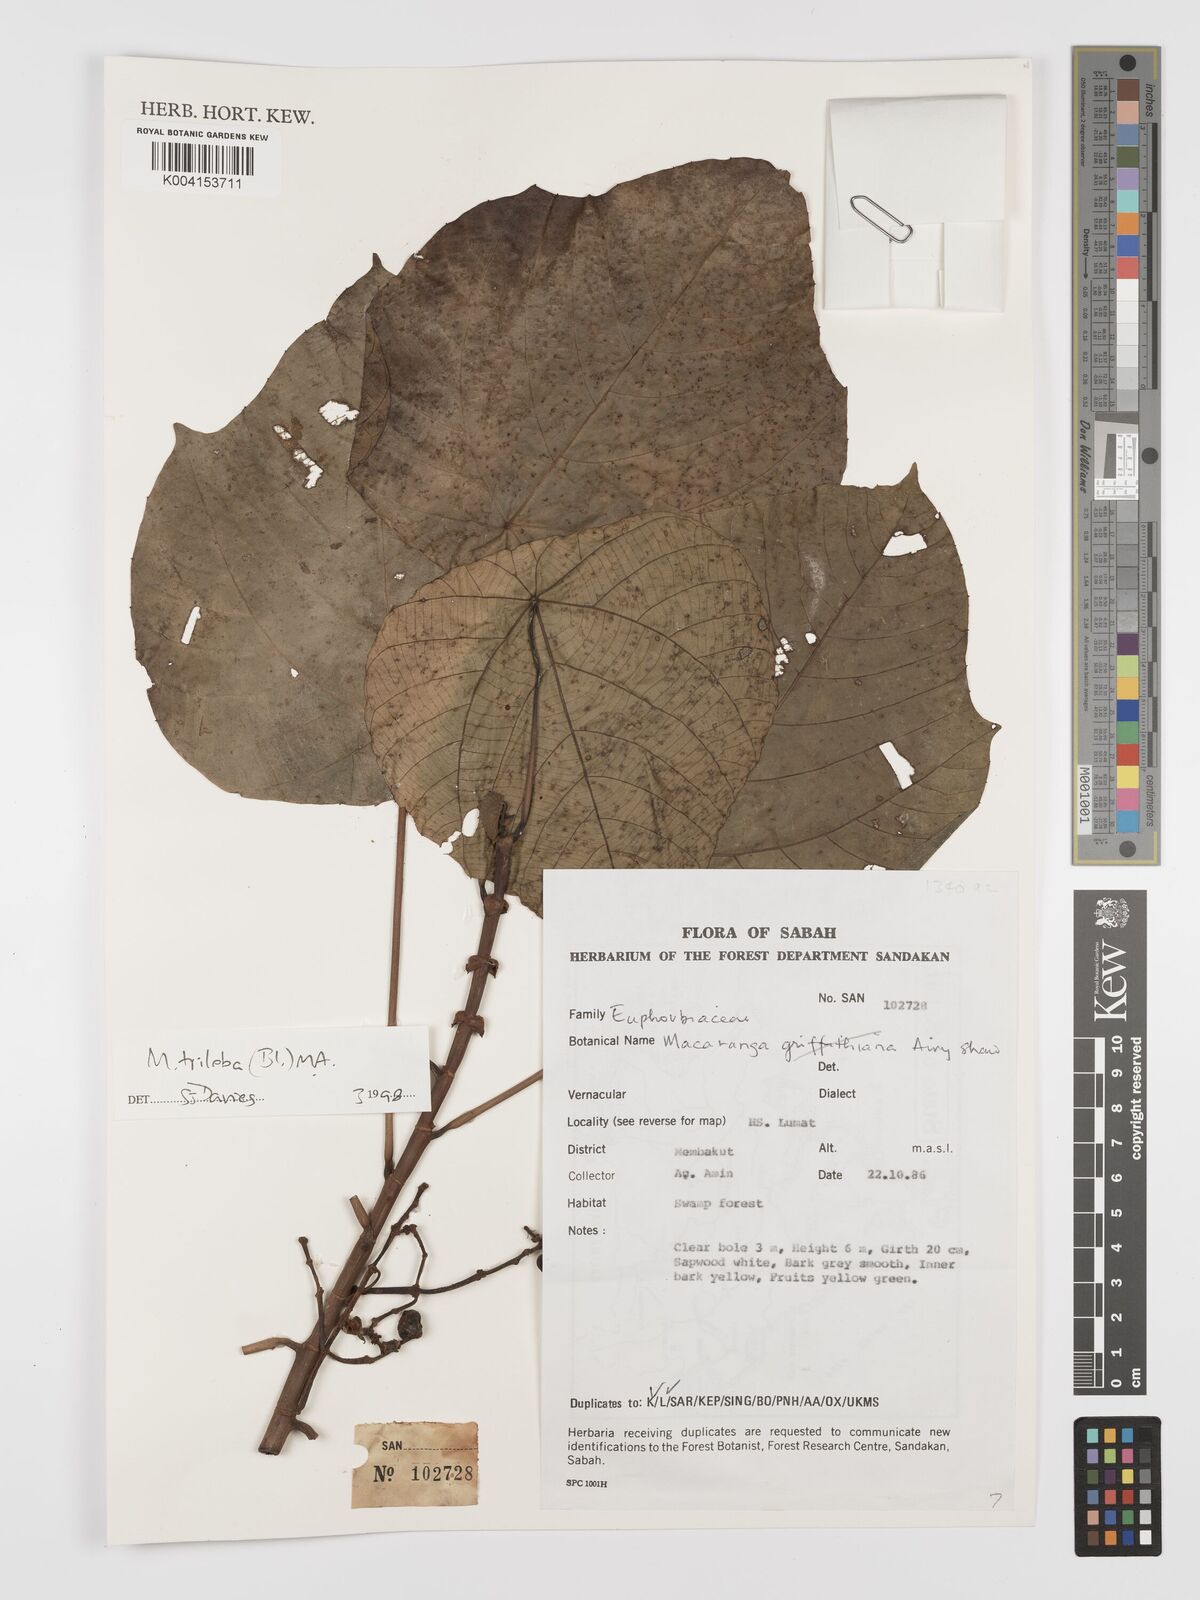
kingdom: Plantae
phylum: Tracheophyta
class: Magnoliopsida
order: Malpighiales
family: Euphorbiaceae
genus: Macaranga
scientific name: Macaranga triloba
